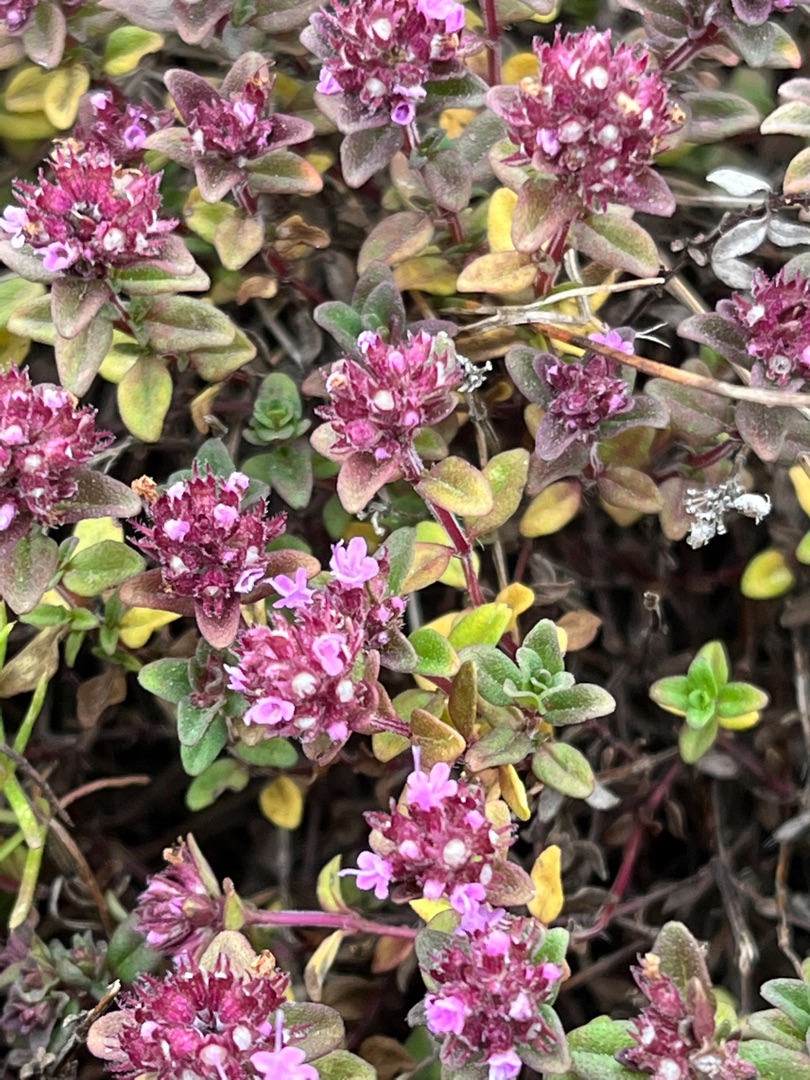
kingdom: Plantae
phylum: Tracheophyta
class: Magnoliopsida
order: Lamiales
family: Lamiaceae
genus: Thymus
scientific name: Thymus pulegioides
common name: Bredbladet timian
